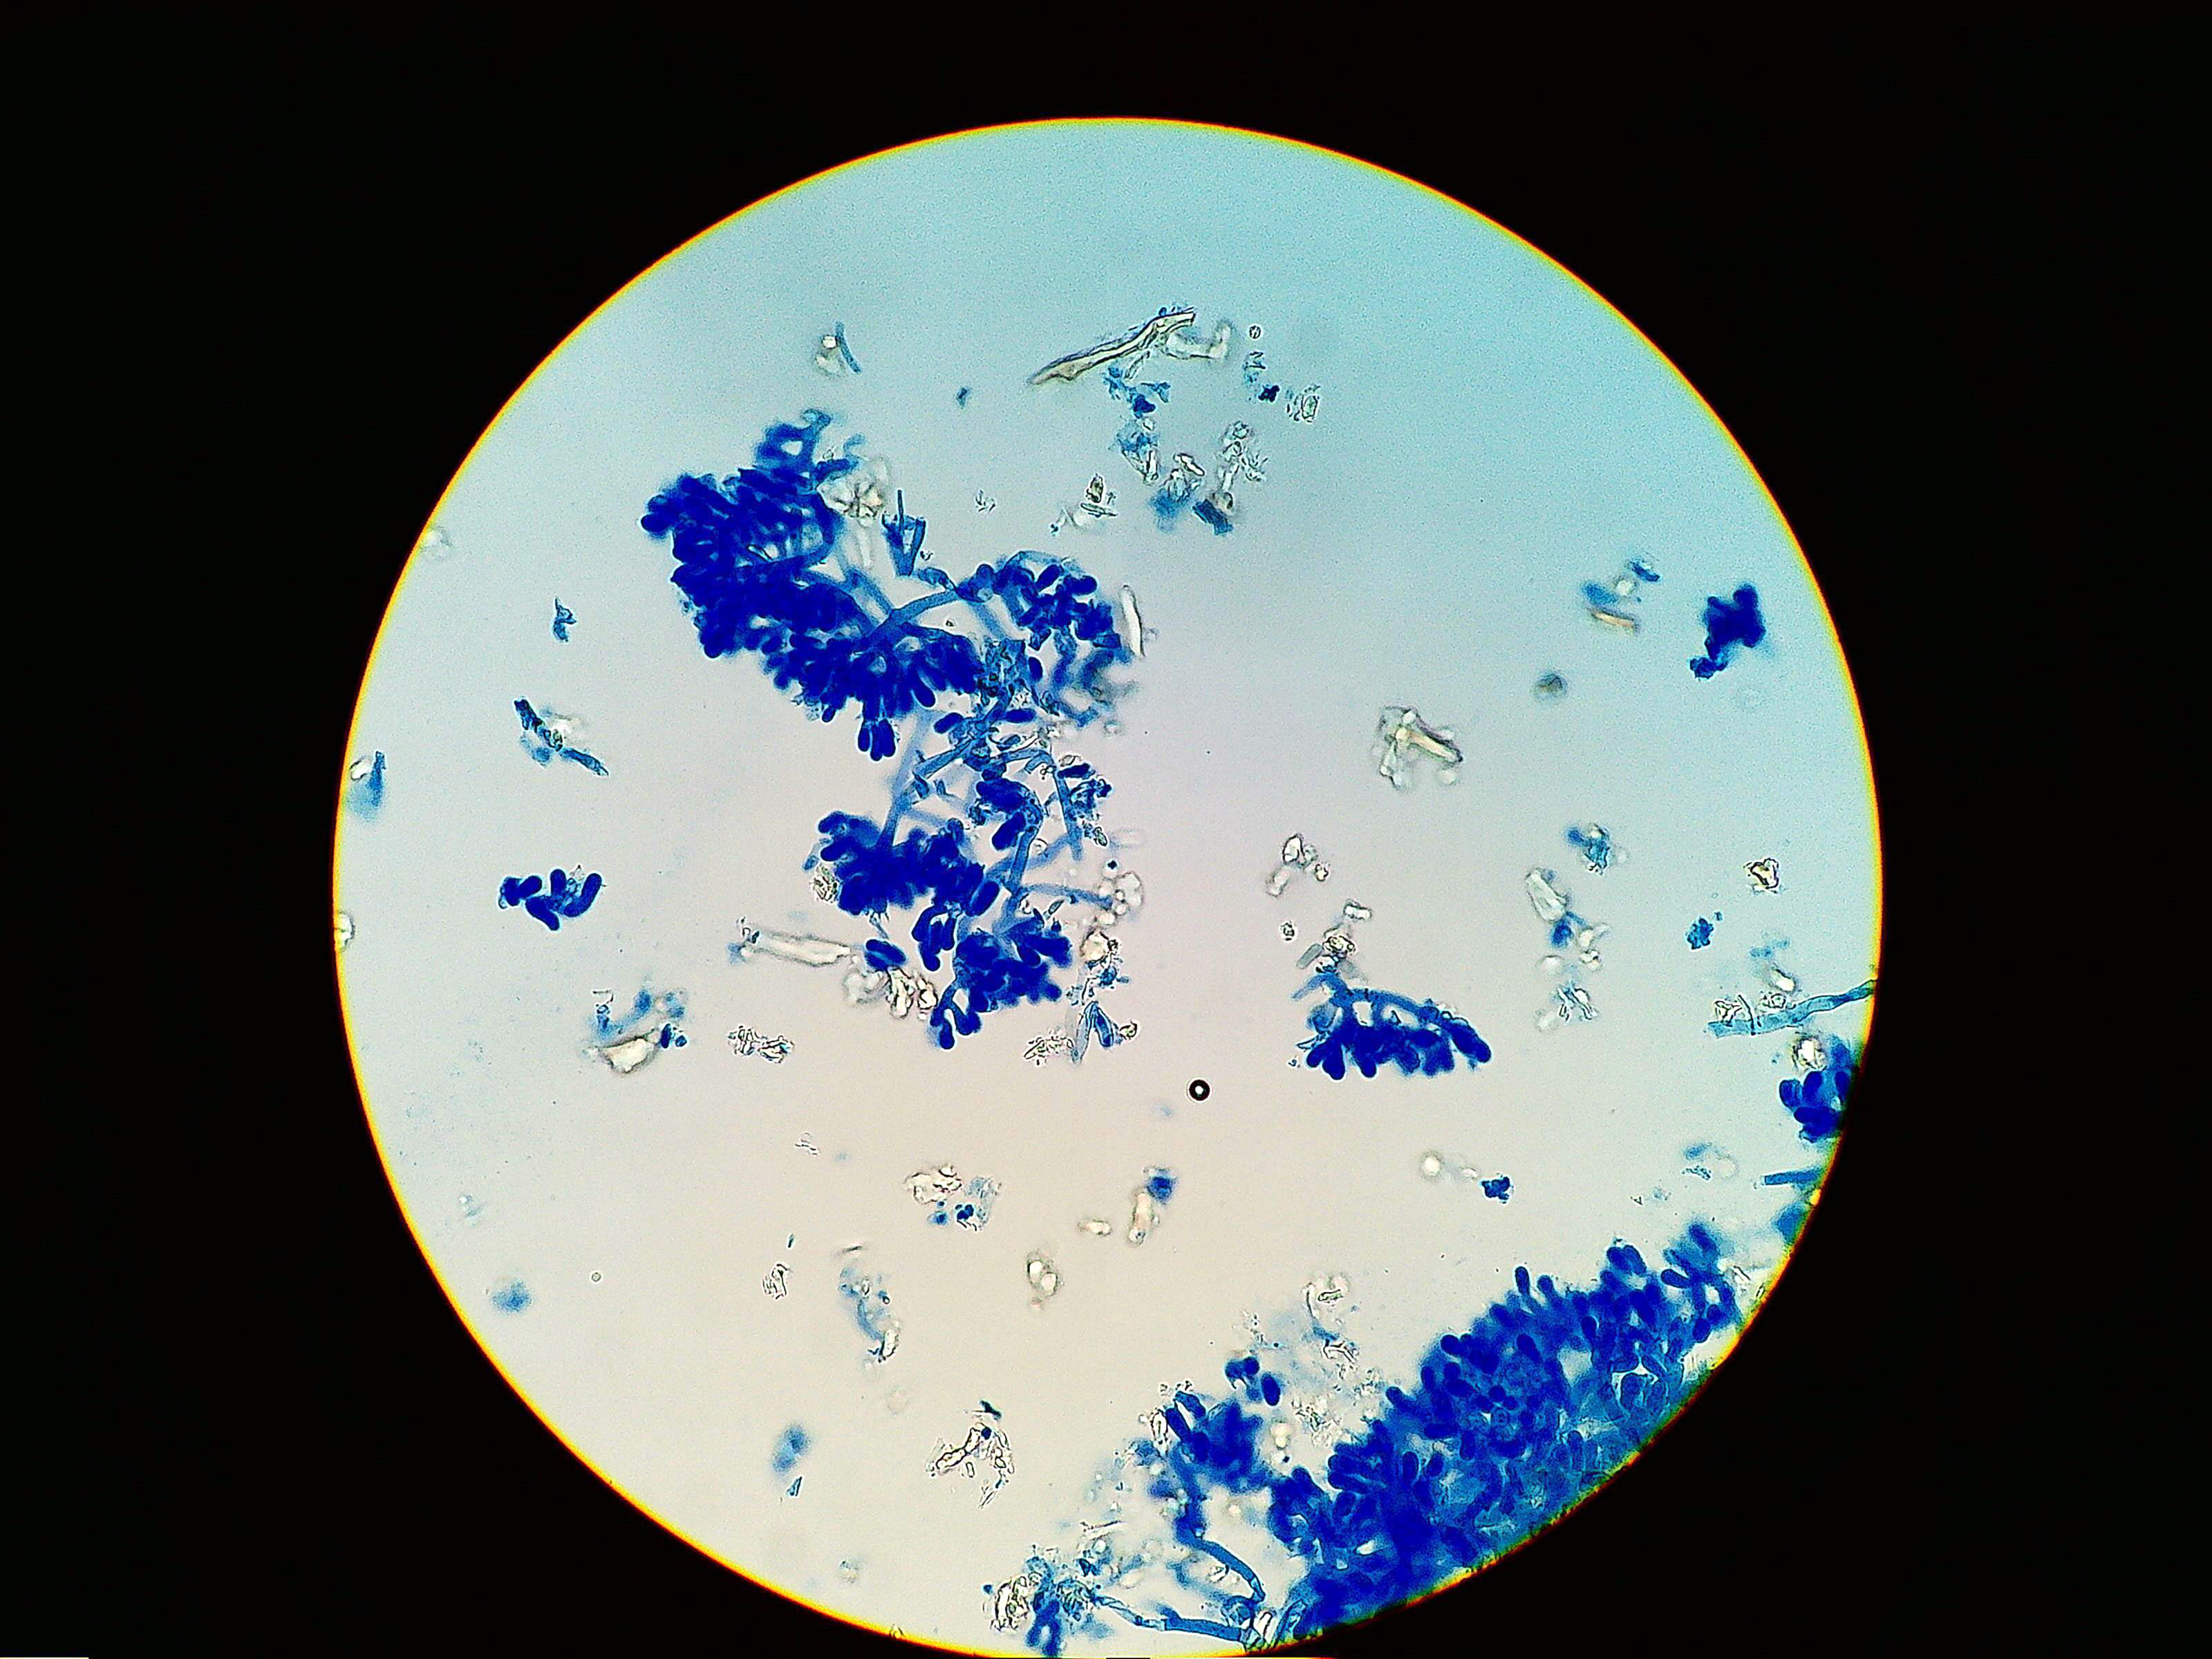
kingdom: Fungi
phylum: Basidiomycota
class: Agaricomycetes
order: Atheliales
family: Atheliaceae
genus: Athelia
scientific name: Athelia decipiens
